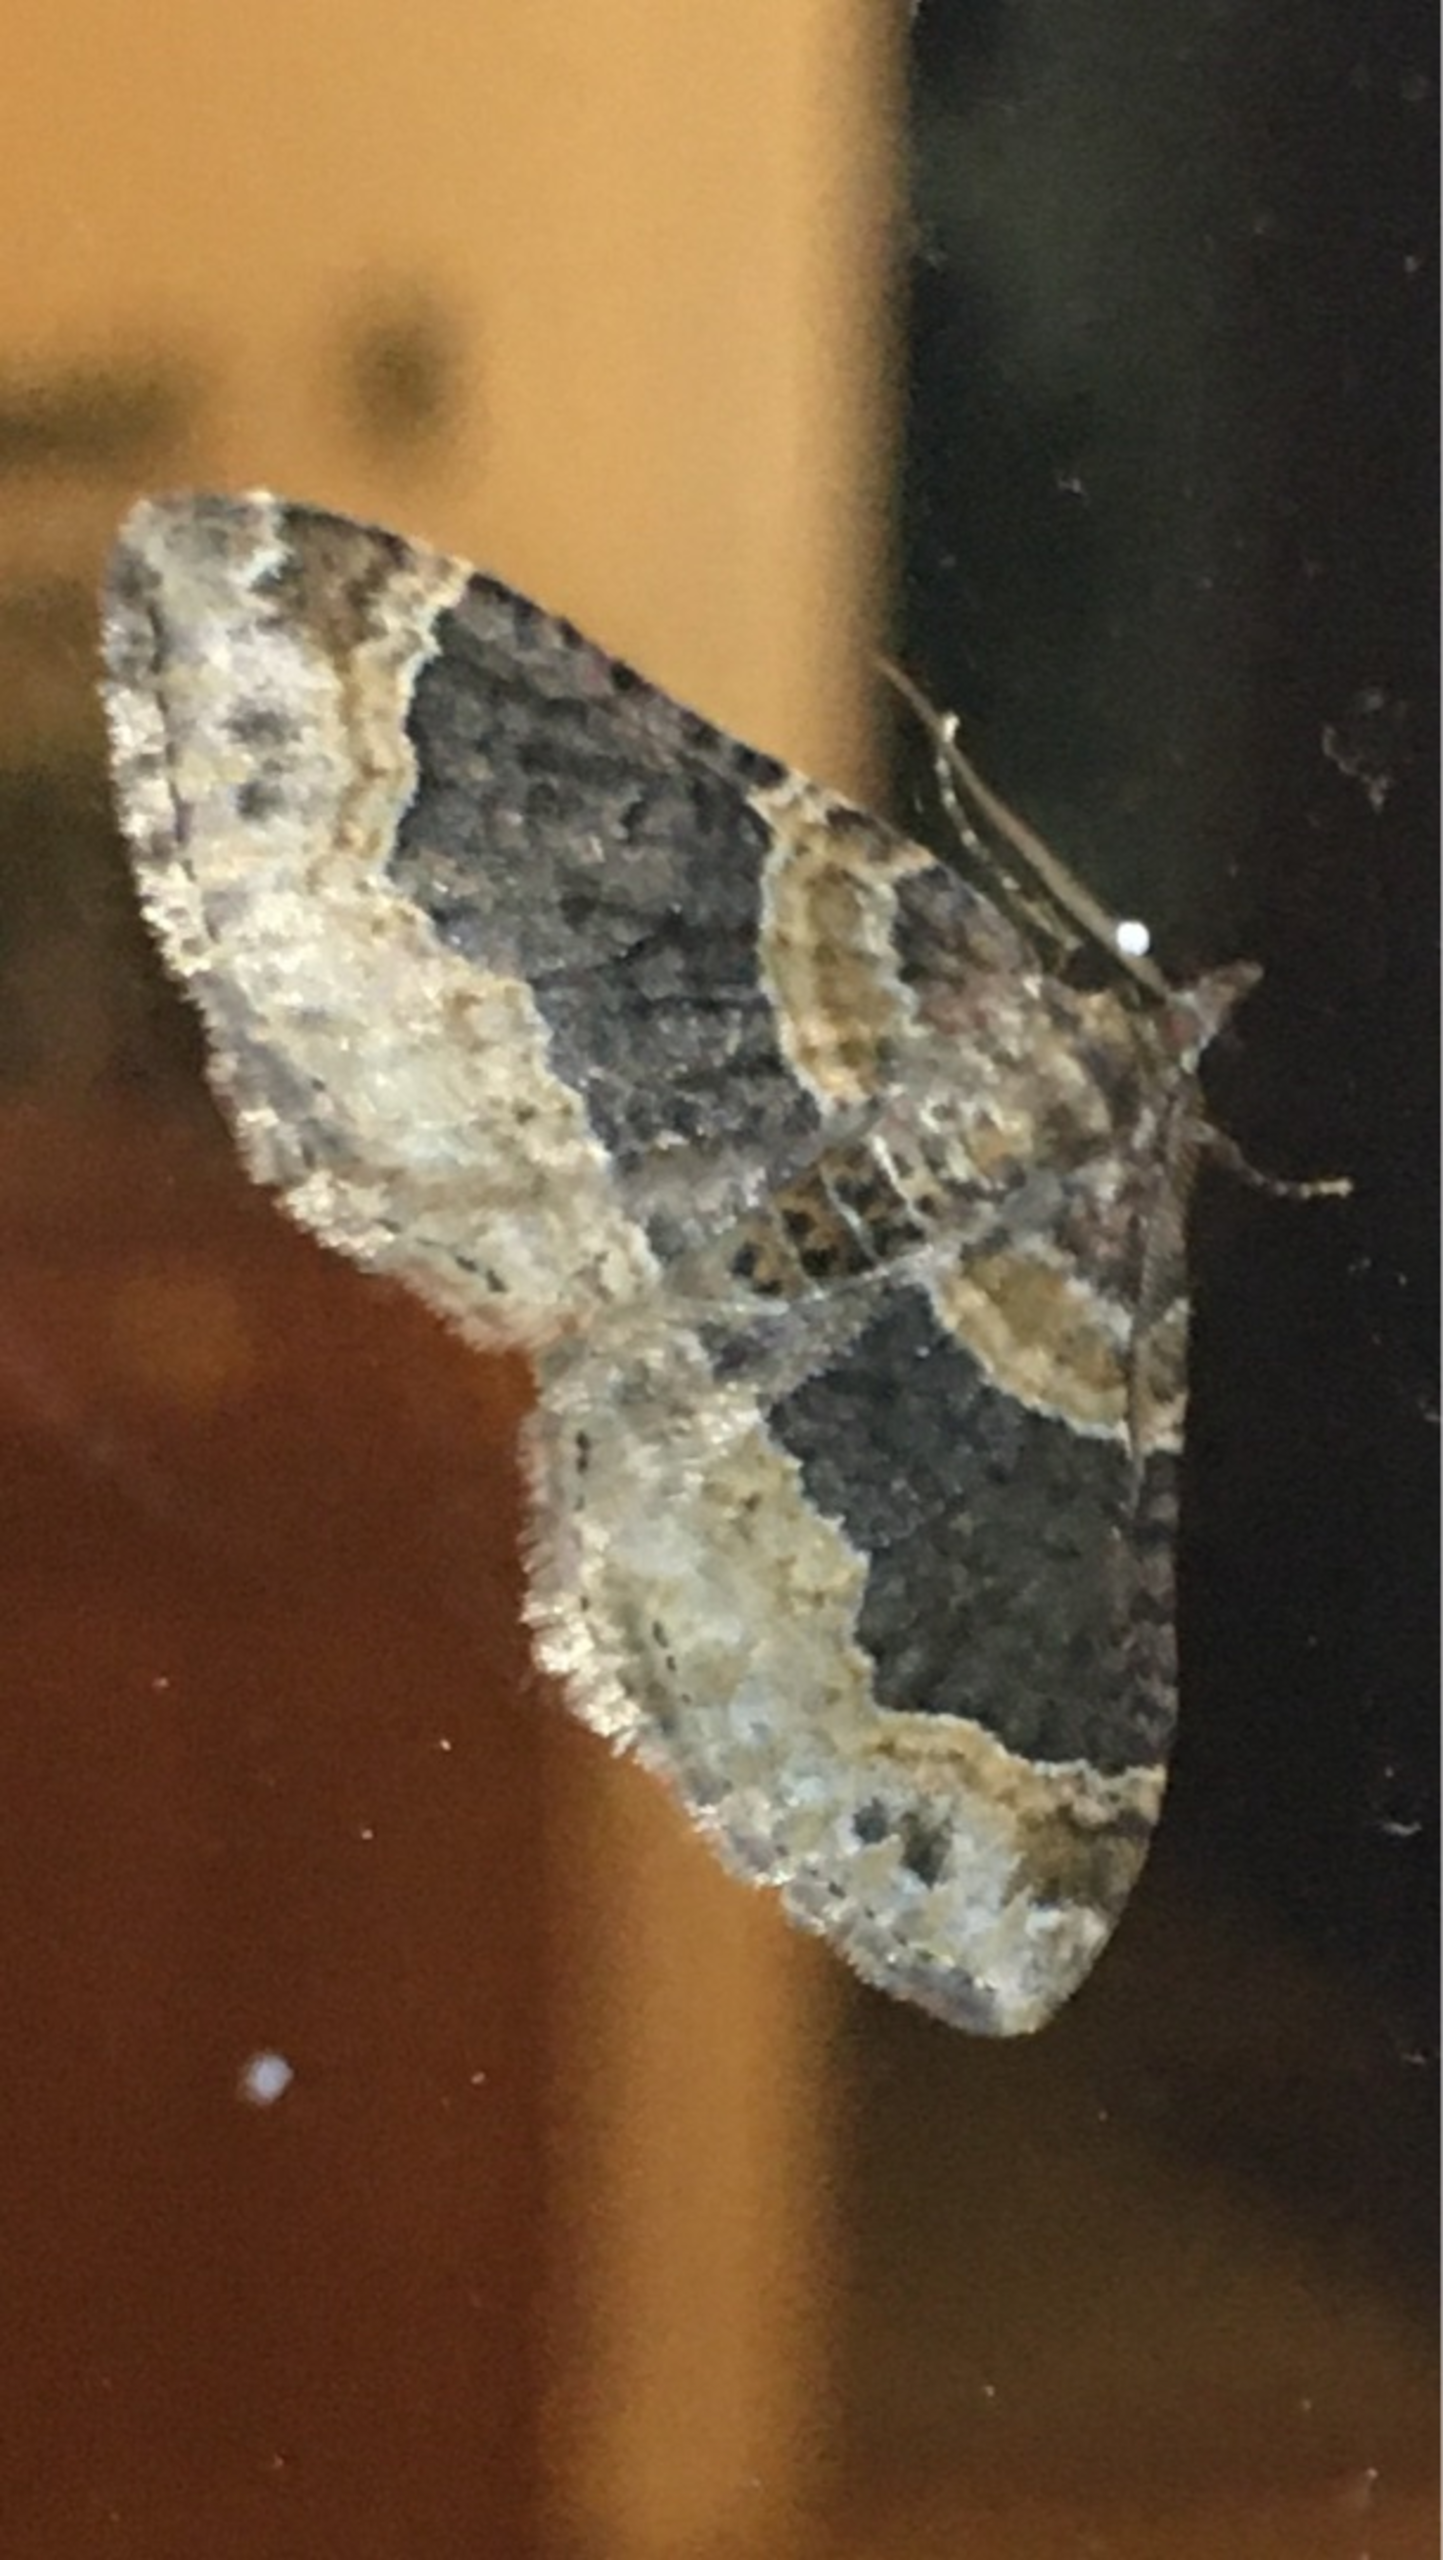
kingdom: Animalia
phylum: Arthropoda
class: Insecta
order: Lepidoptera
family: Geometridae
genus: Xanthorhoe
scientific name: Xanthorhoe ferrugata
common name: Rustbladmåler
